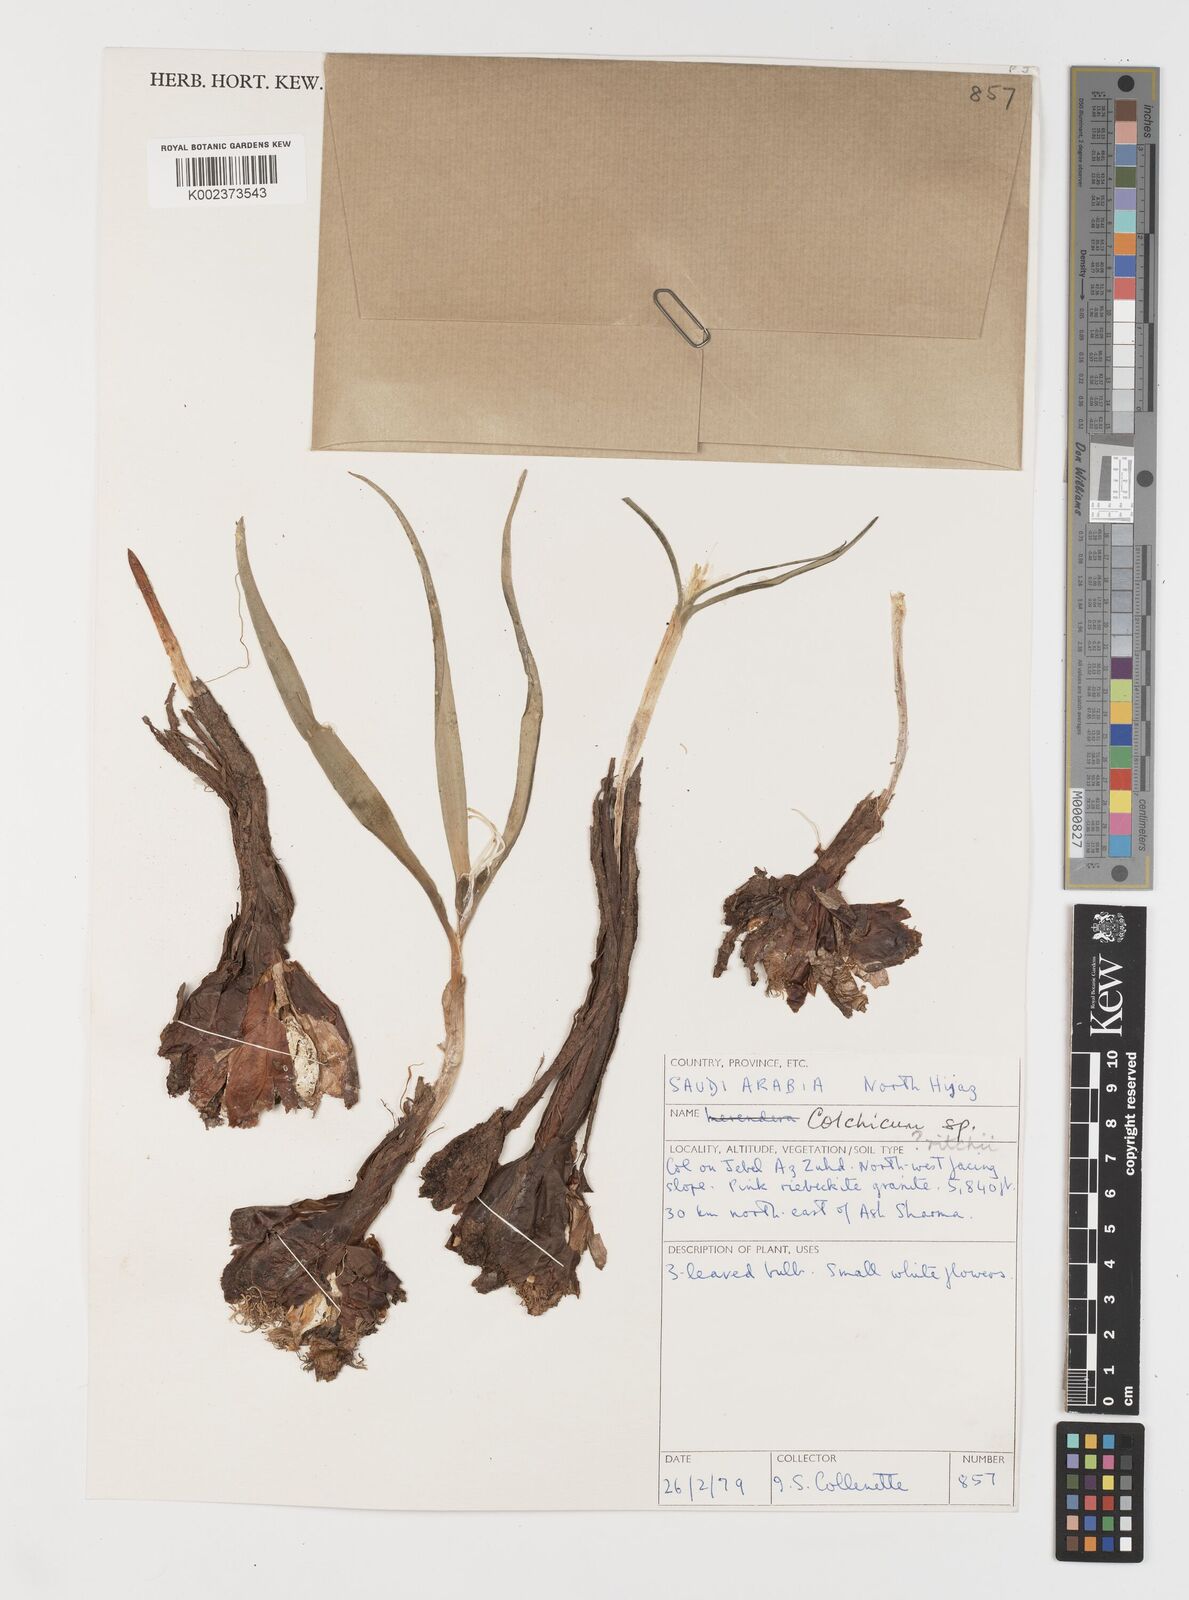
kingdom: Plantae
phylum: Tracheophyta
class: Liliopsida
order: Liliales
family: Colchicaceae
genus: Colchicum
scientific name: Colchicum ritchii
